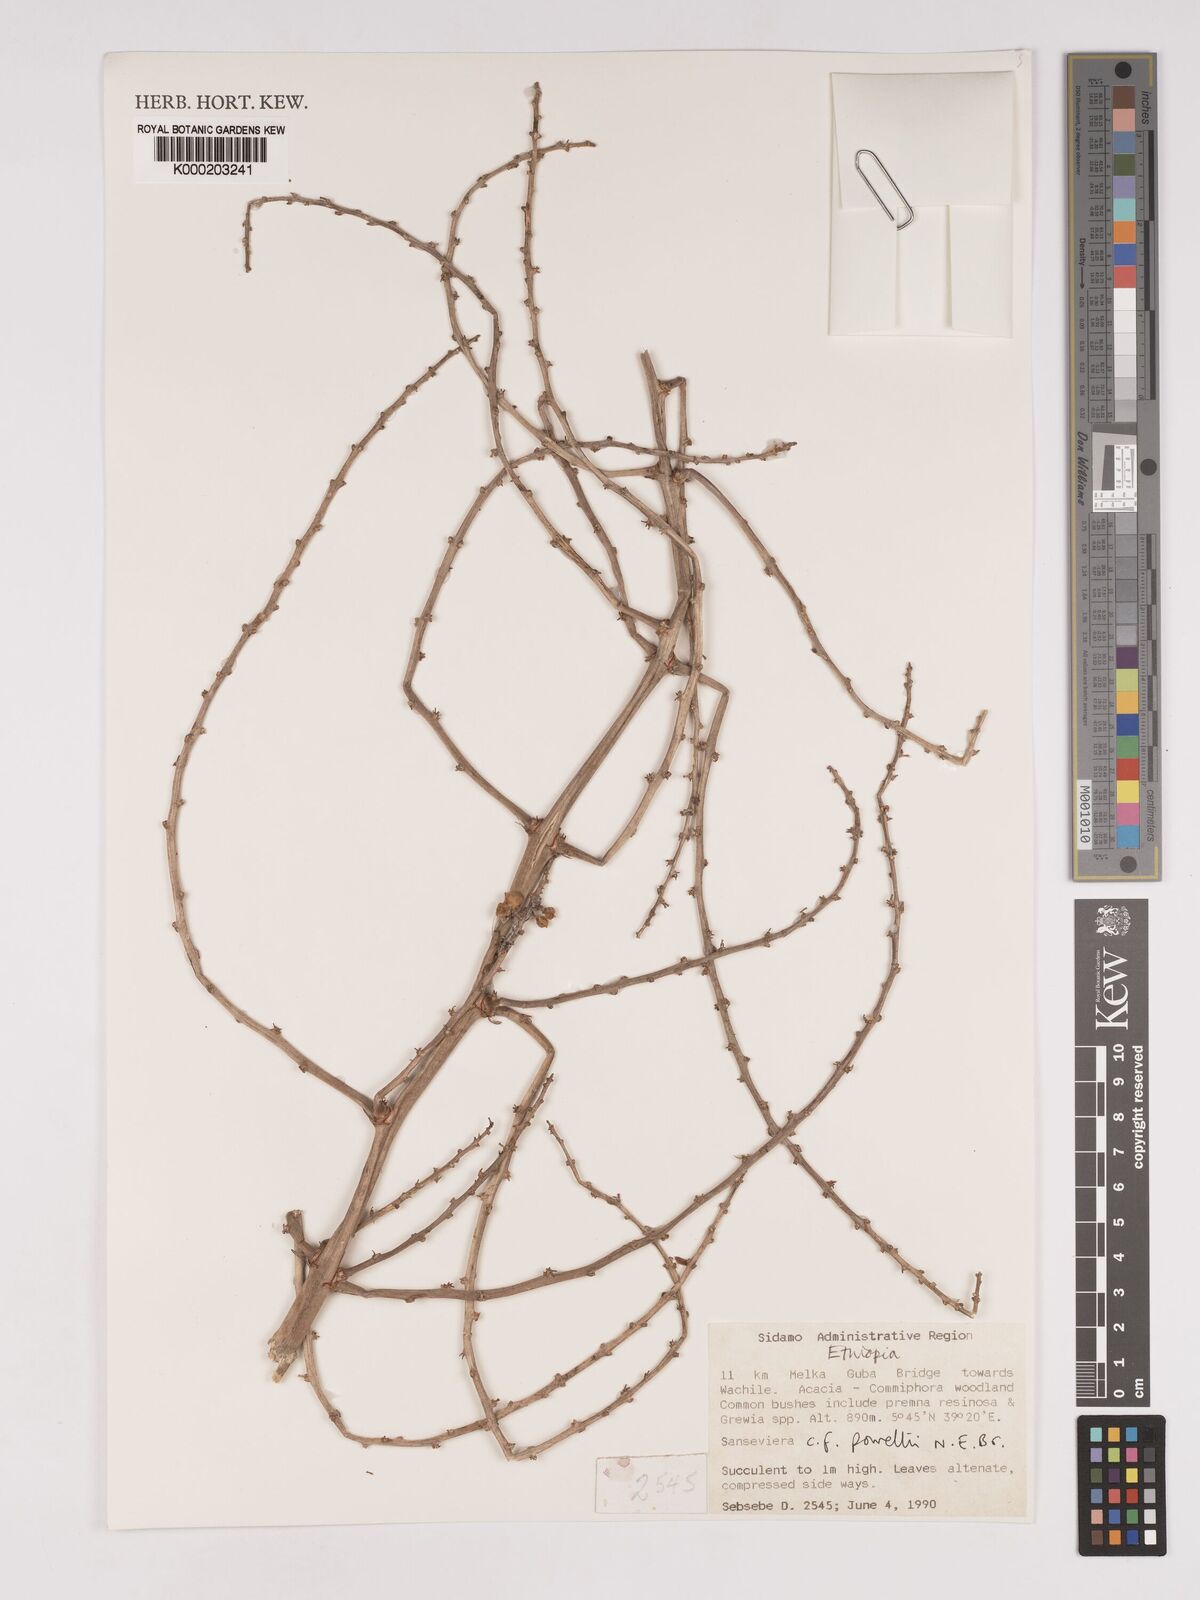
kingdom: Plantae
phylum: Tracheophyta
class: Liliopsida
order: Asparagales
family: Asparagaceae
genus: Dracaena
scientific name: Dracaena powellii
